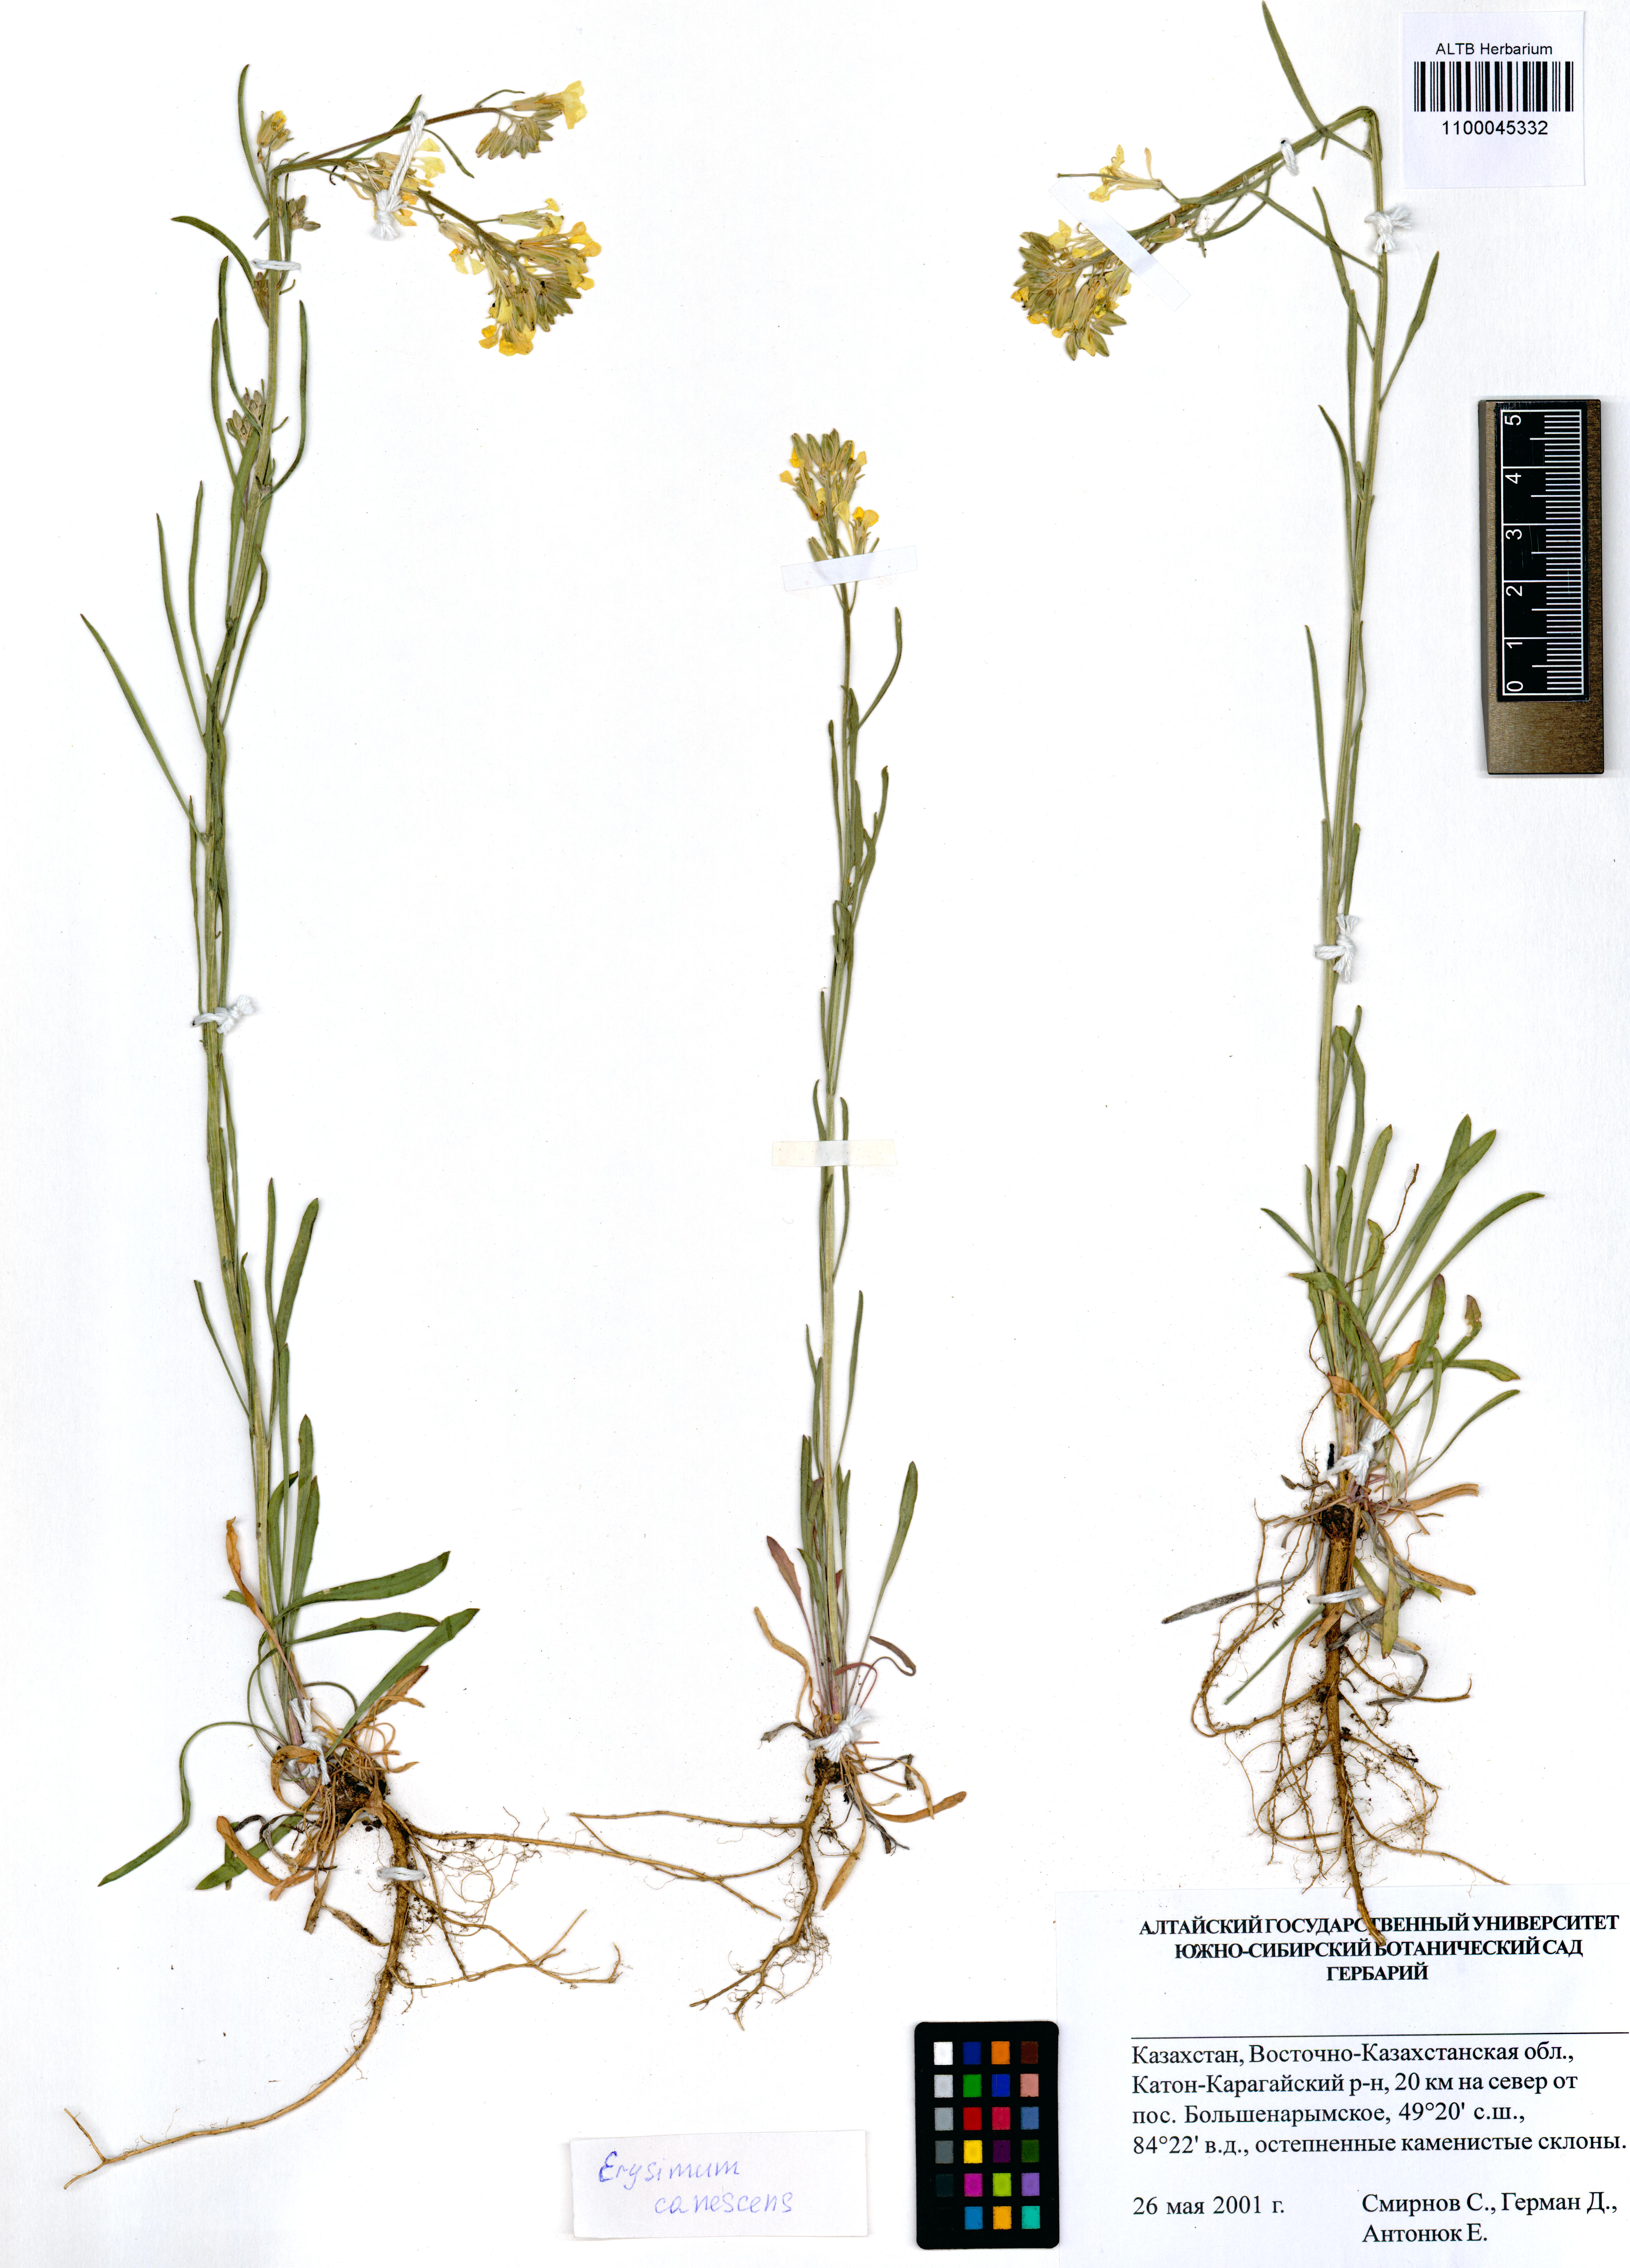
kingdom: Plantae
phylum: Tracheophyta
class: Magnoliopsida
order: Brassicales
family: Brassicaceae
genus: Erysimum
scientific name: Erysimum canescens
